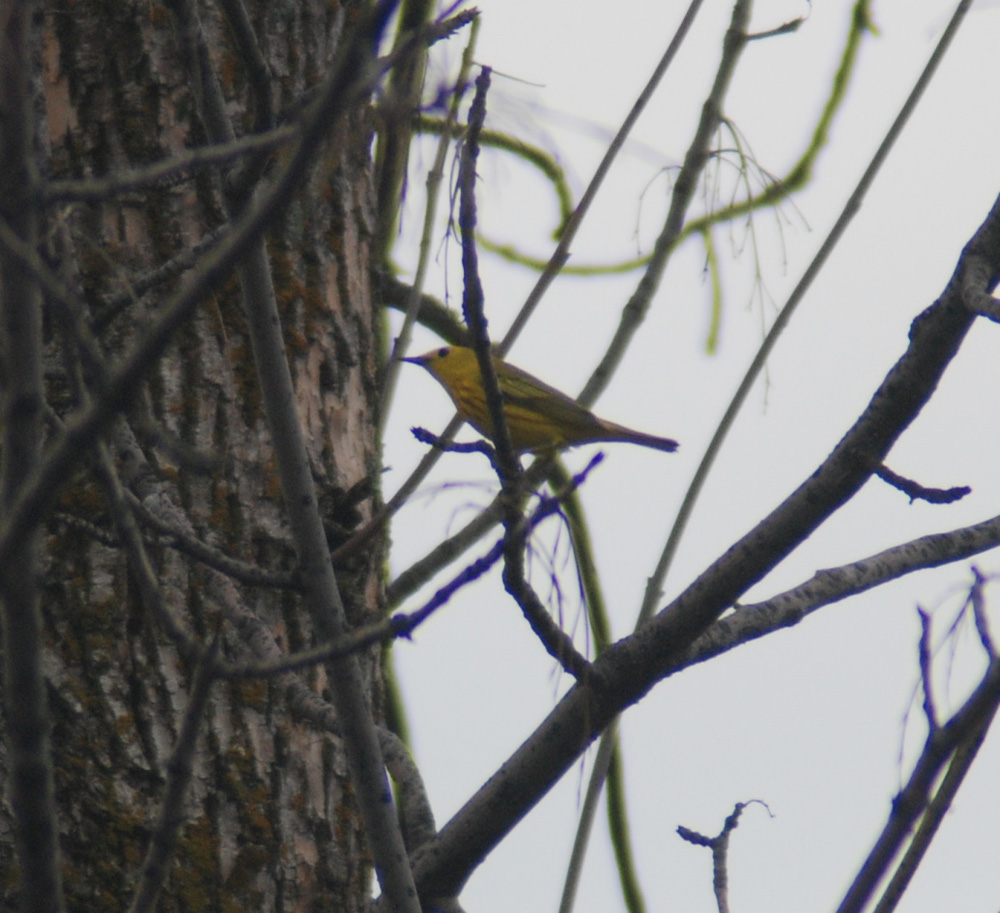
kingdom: Animalia
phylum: Chordata
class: Aves
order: Passeriformes
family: Parulidae
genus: Setophaga
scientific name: Setophaga petechia
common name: Yellow warbler
